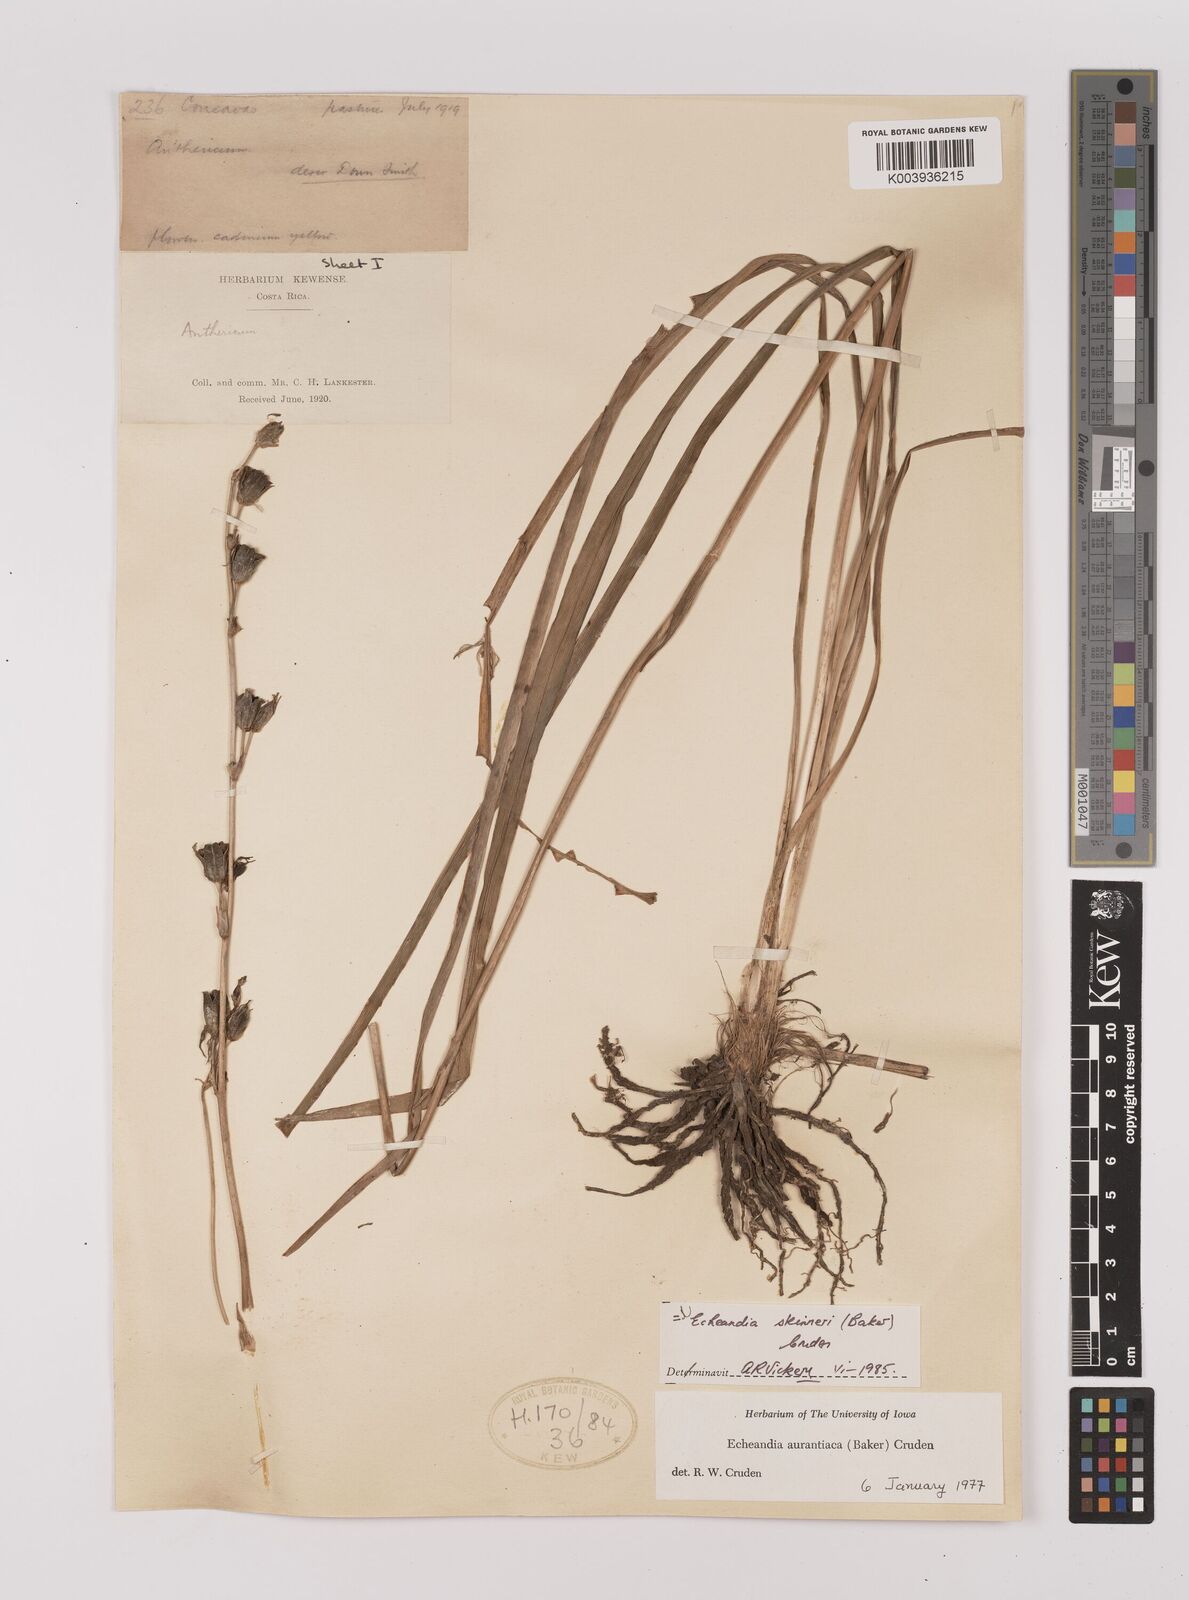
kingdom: Plantae
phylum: Tracheophyta
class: Liliopsida
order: Asparagales
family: Asparagaceae
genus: Echeandia
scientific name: Echeandia skinneri
